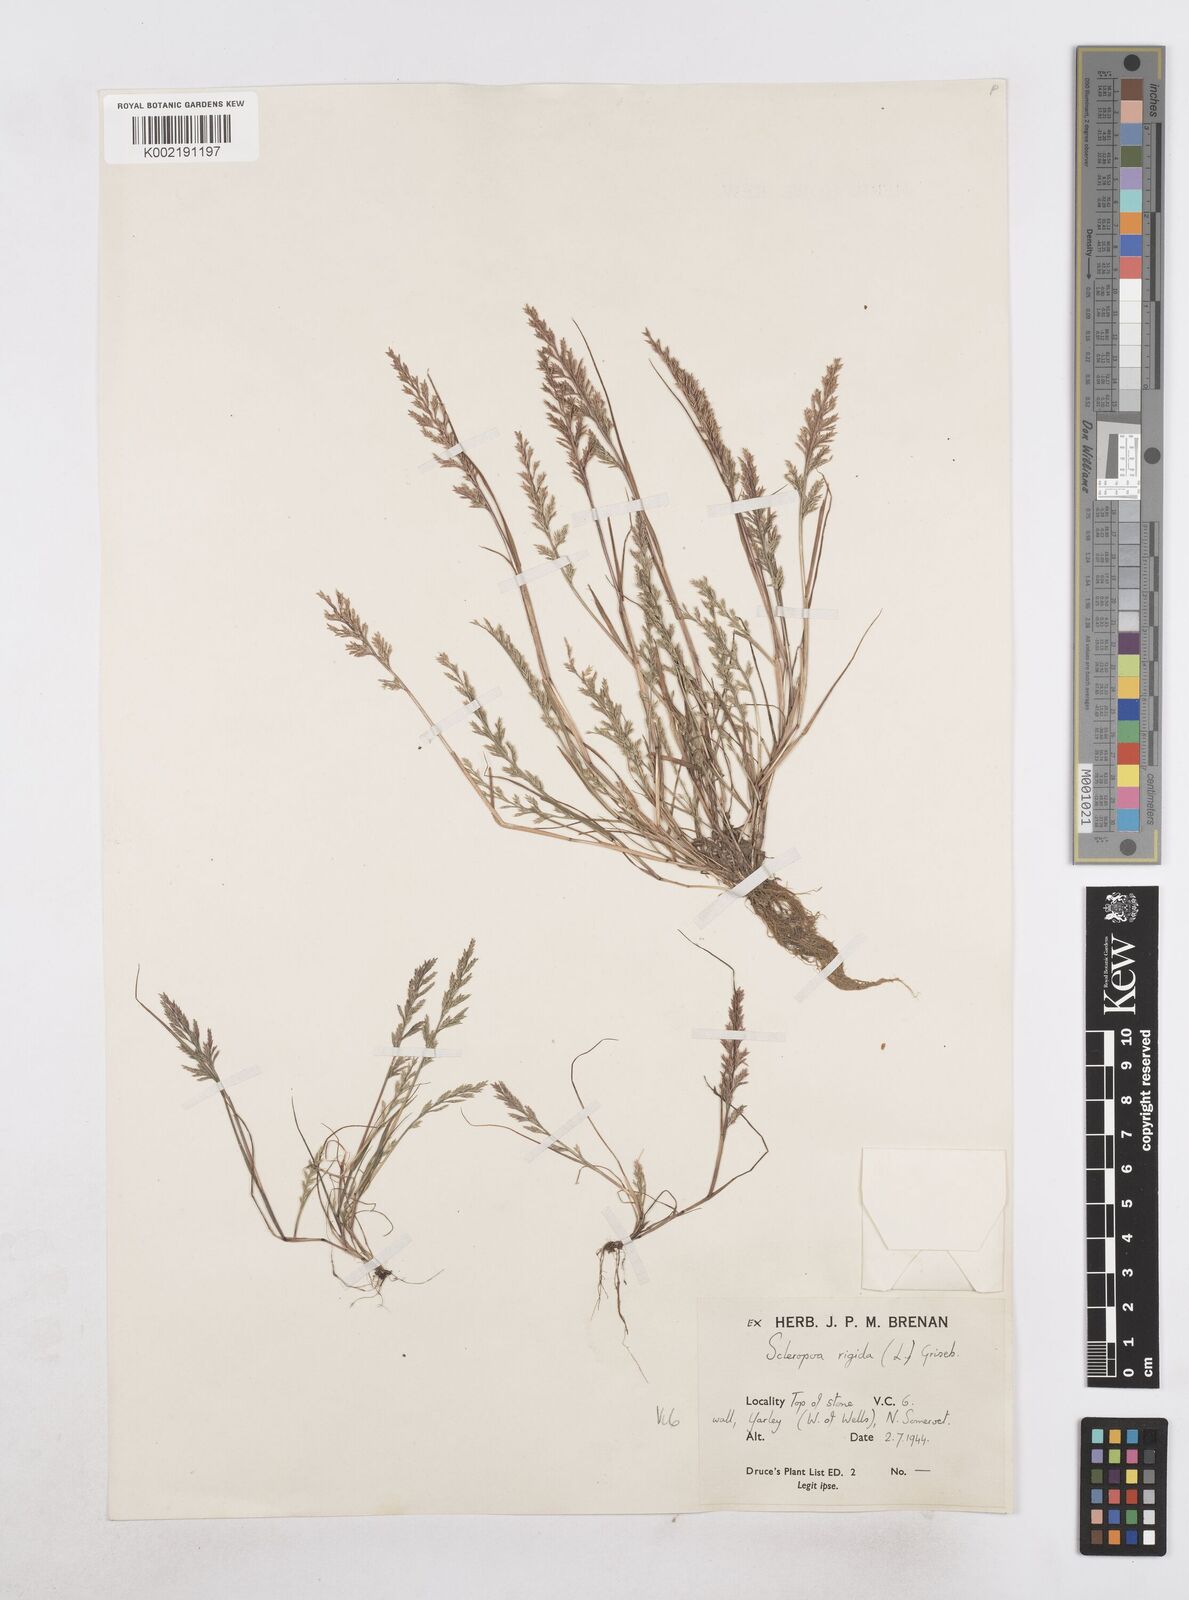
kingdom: Plantae
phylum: Tracheophyta
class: Liliopsida
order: Poales
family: Poaceae
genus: Catapodium
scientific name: Catapodium rigidum
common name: Fern-grass
